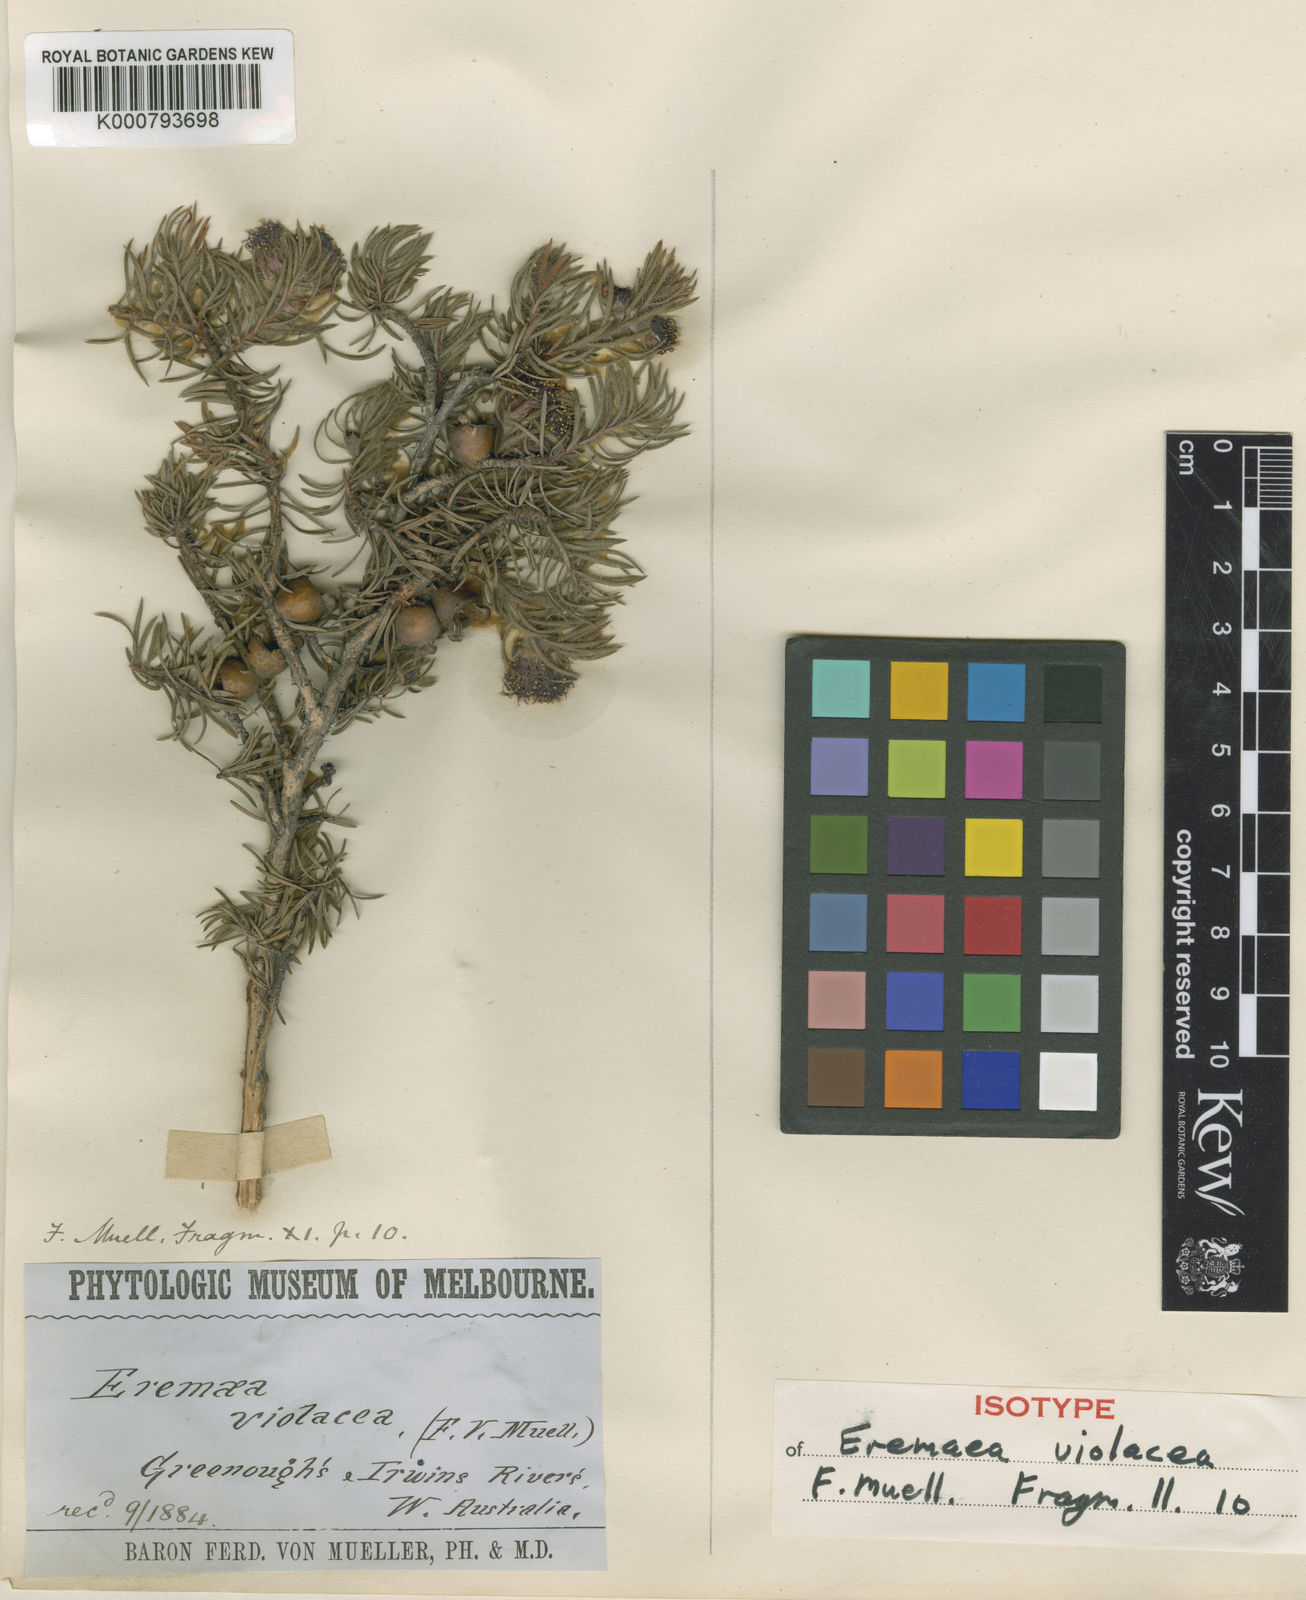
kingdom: Plantae
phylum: Tracheophyta
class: Magnoliopsida
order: Myrtales
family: Myrtaceae
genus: Melaleuca
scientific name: Melaleuca kybeliona
